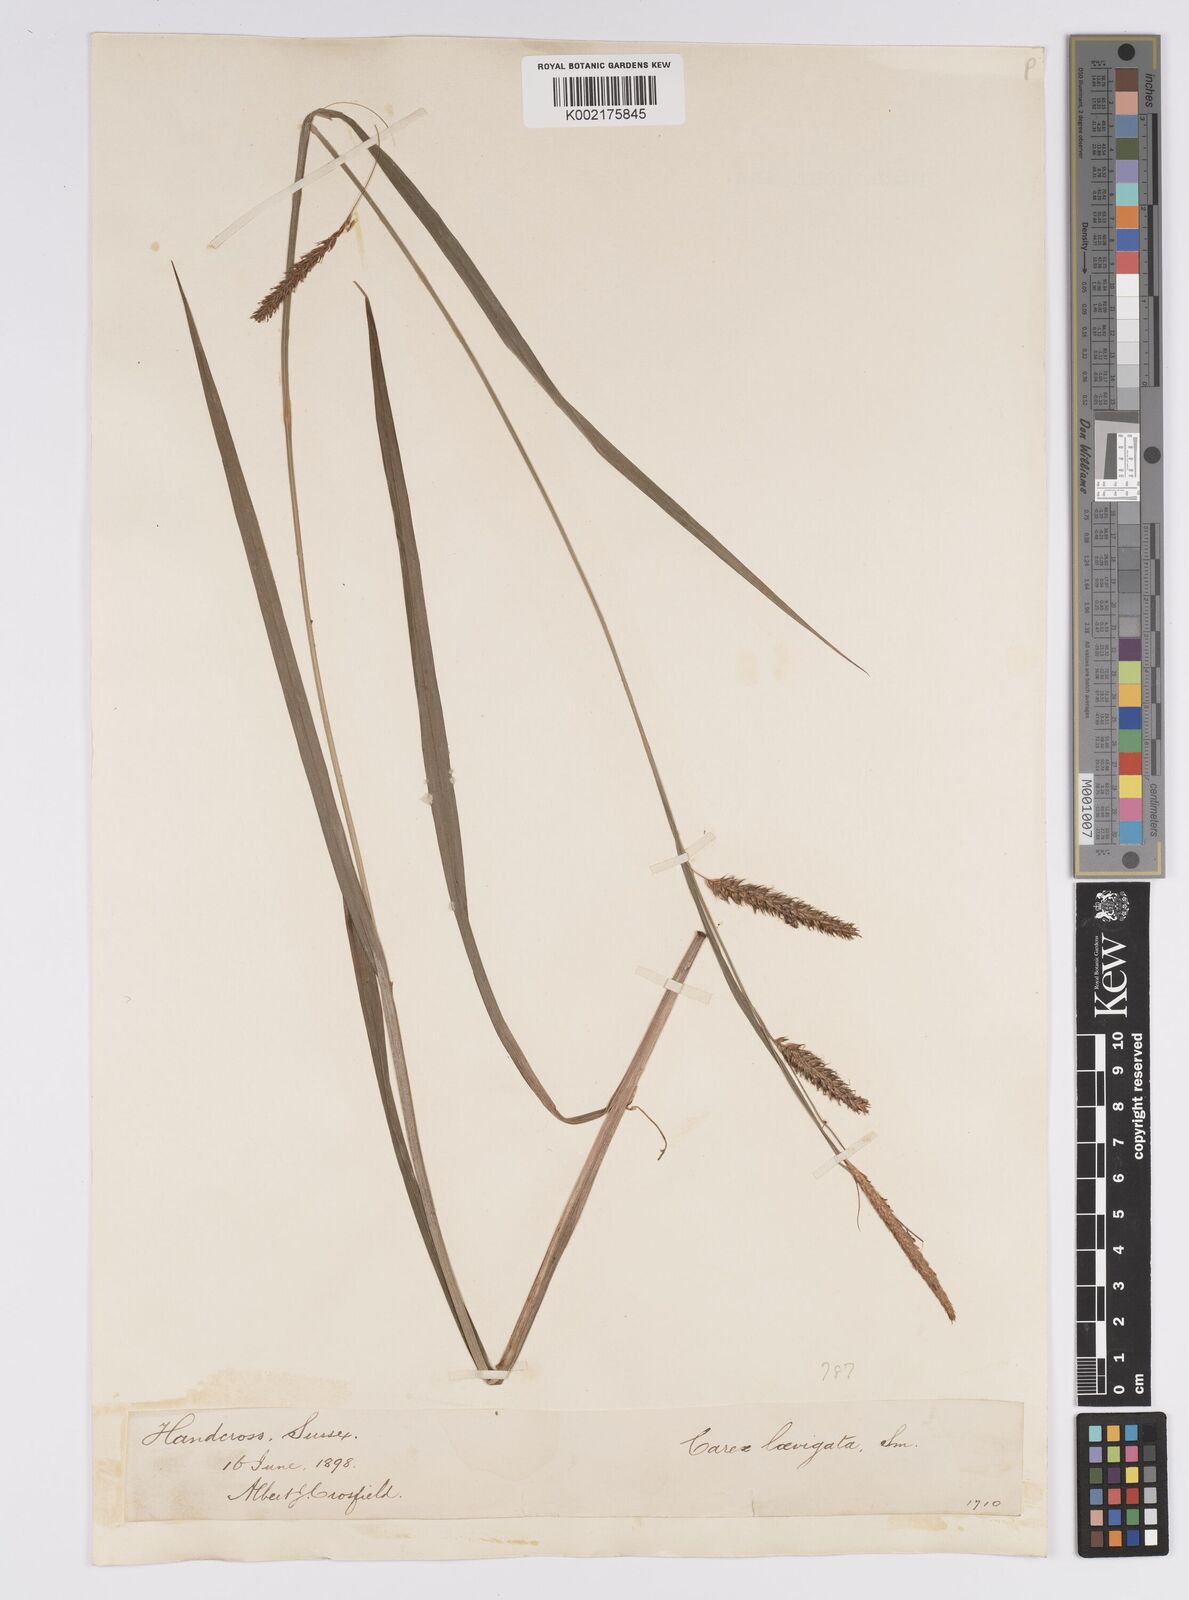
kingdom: Plantae
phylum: Tracheophyta
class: Liliopsida
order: Poales
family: Cyperaceae
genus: Carex
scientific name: Carex laevigata
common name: Smooth-stalked sedge
